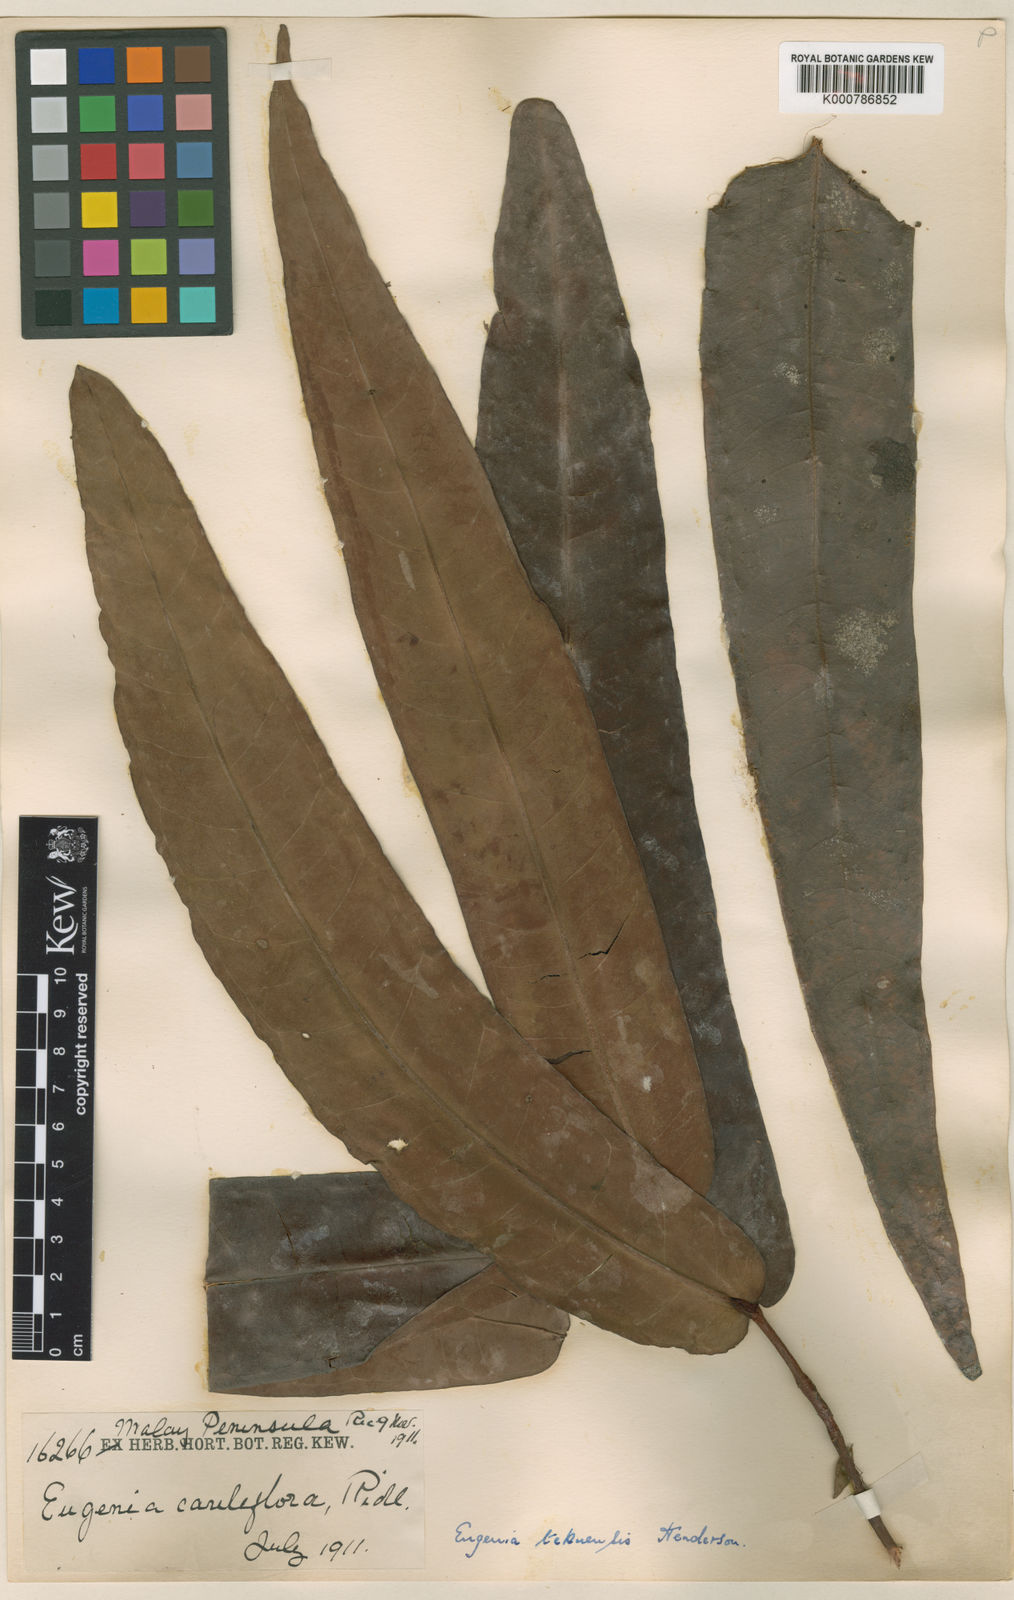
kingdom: Plantae
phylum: Tracheophyta
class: Magnoliopsida
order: Myrtales
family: Myrtaceae
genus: Syzygium
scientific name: Syzygium tekuense
